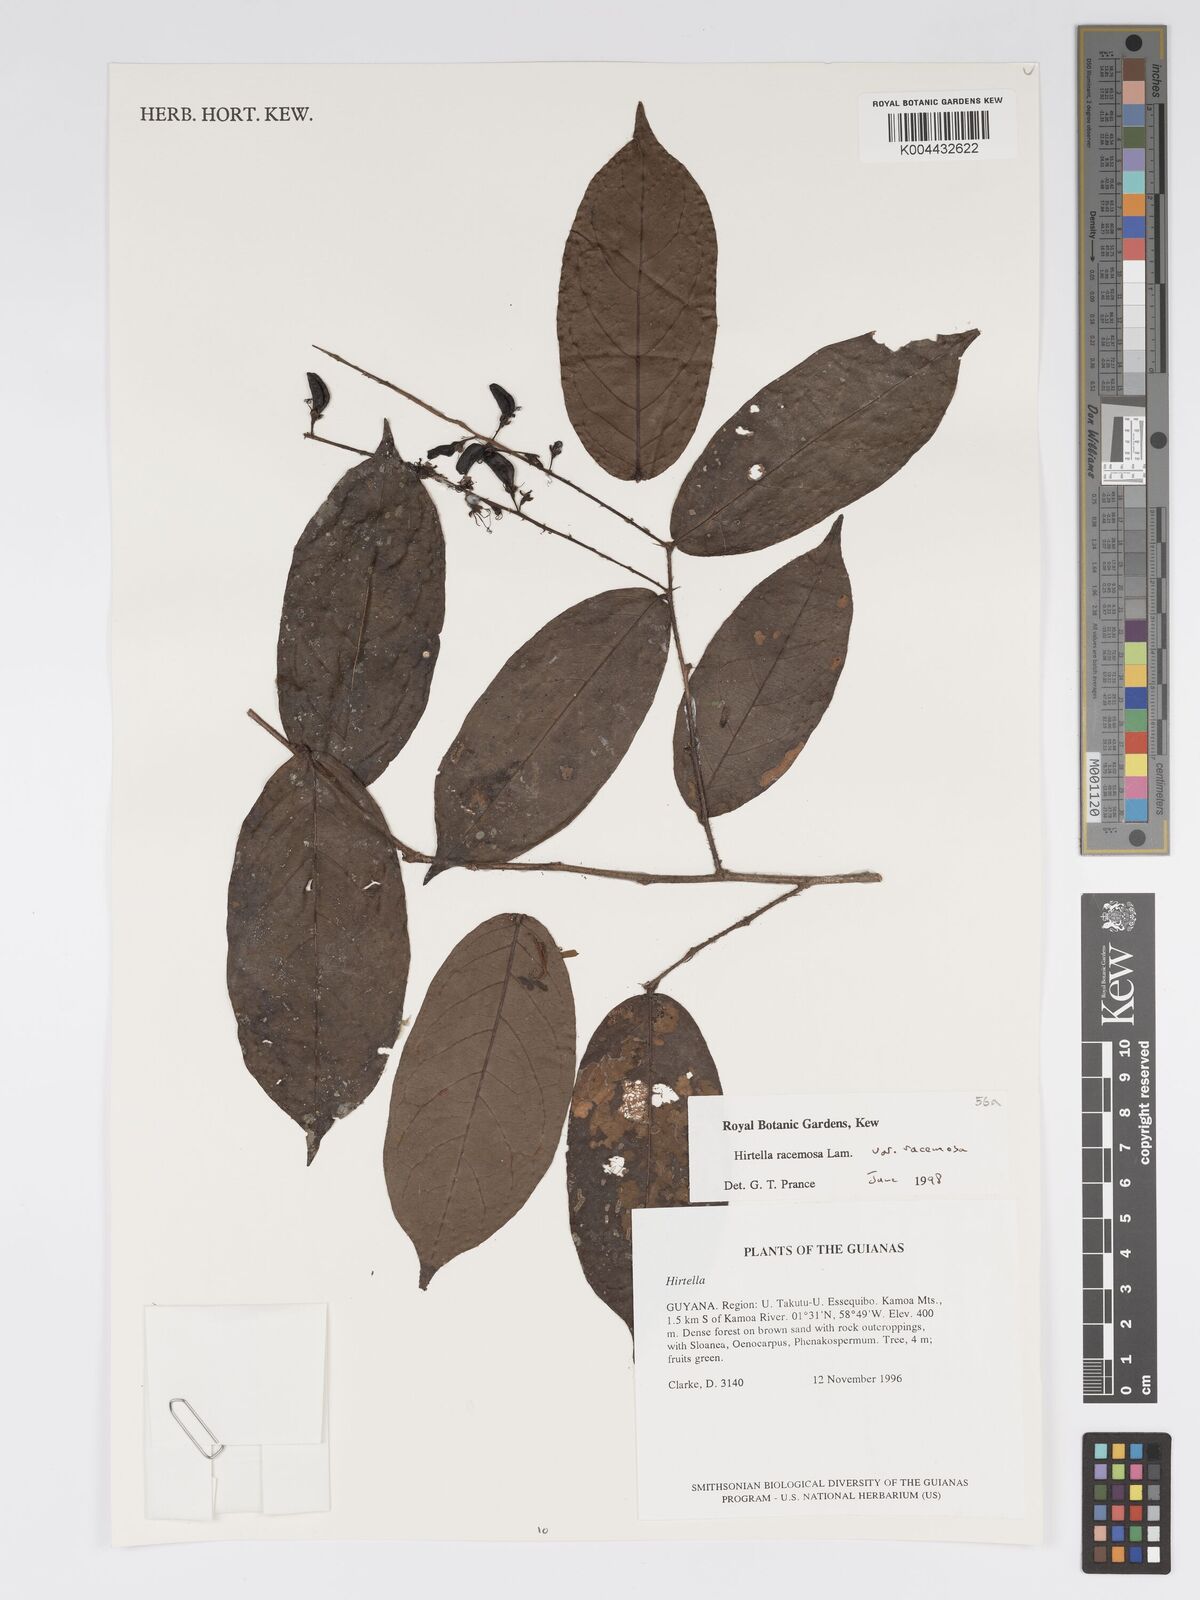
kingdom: Plantae
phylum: Tracheophyta
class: Magnoliopsida
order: Malpighiales
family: Chrysobalanaceae
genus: Hirtella
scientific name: Hirtella racemosa
